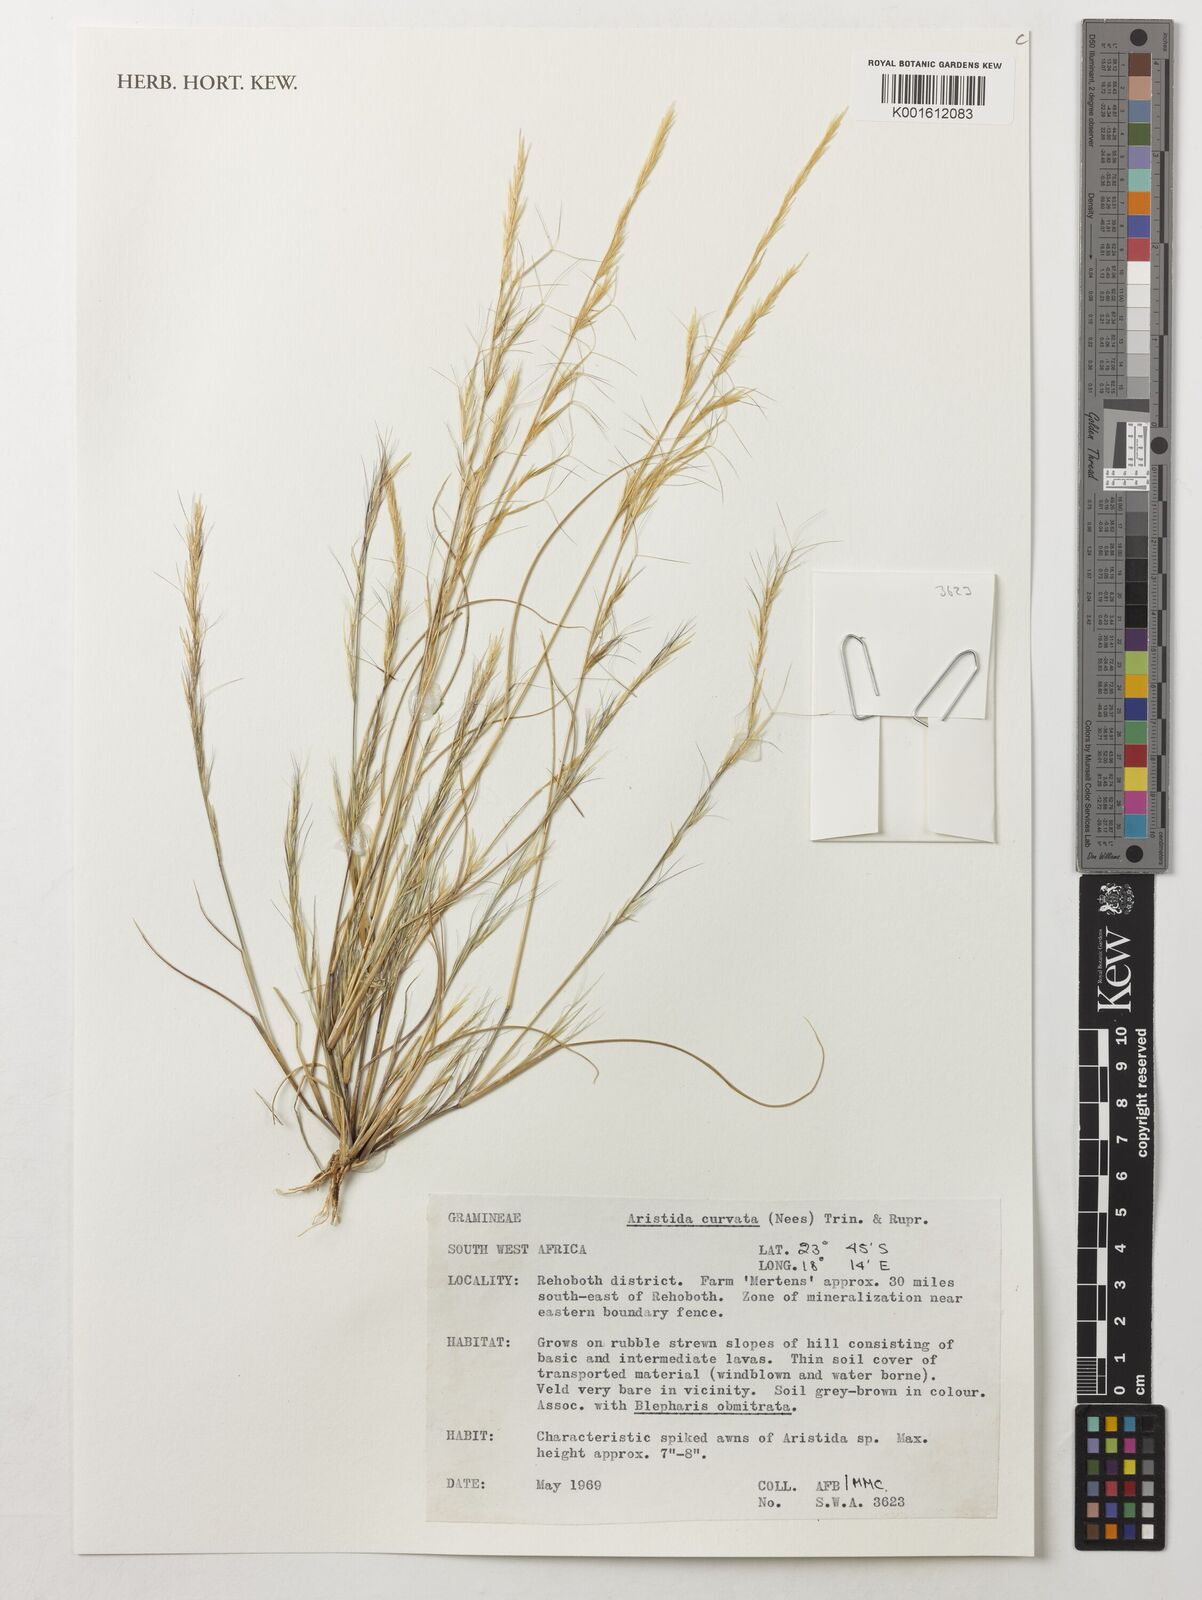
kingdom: Plantae
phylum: Tracheophyta
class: Liliopsida
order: Poales
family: Poaceae
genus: Aristida
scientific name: Aristida adscensionis
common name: Sixweeks threeawn
